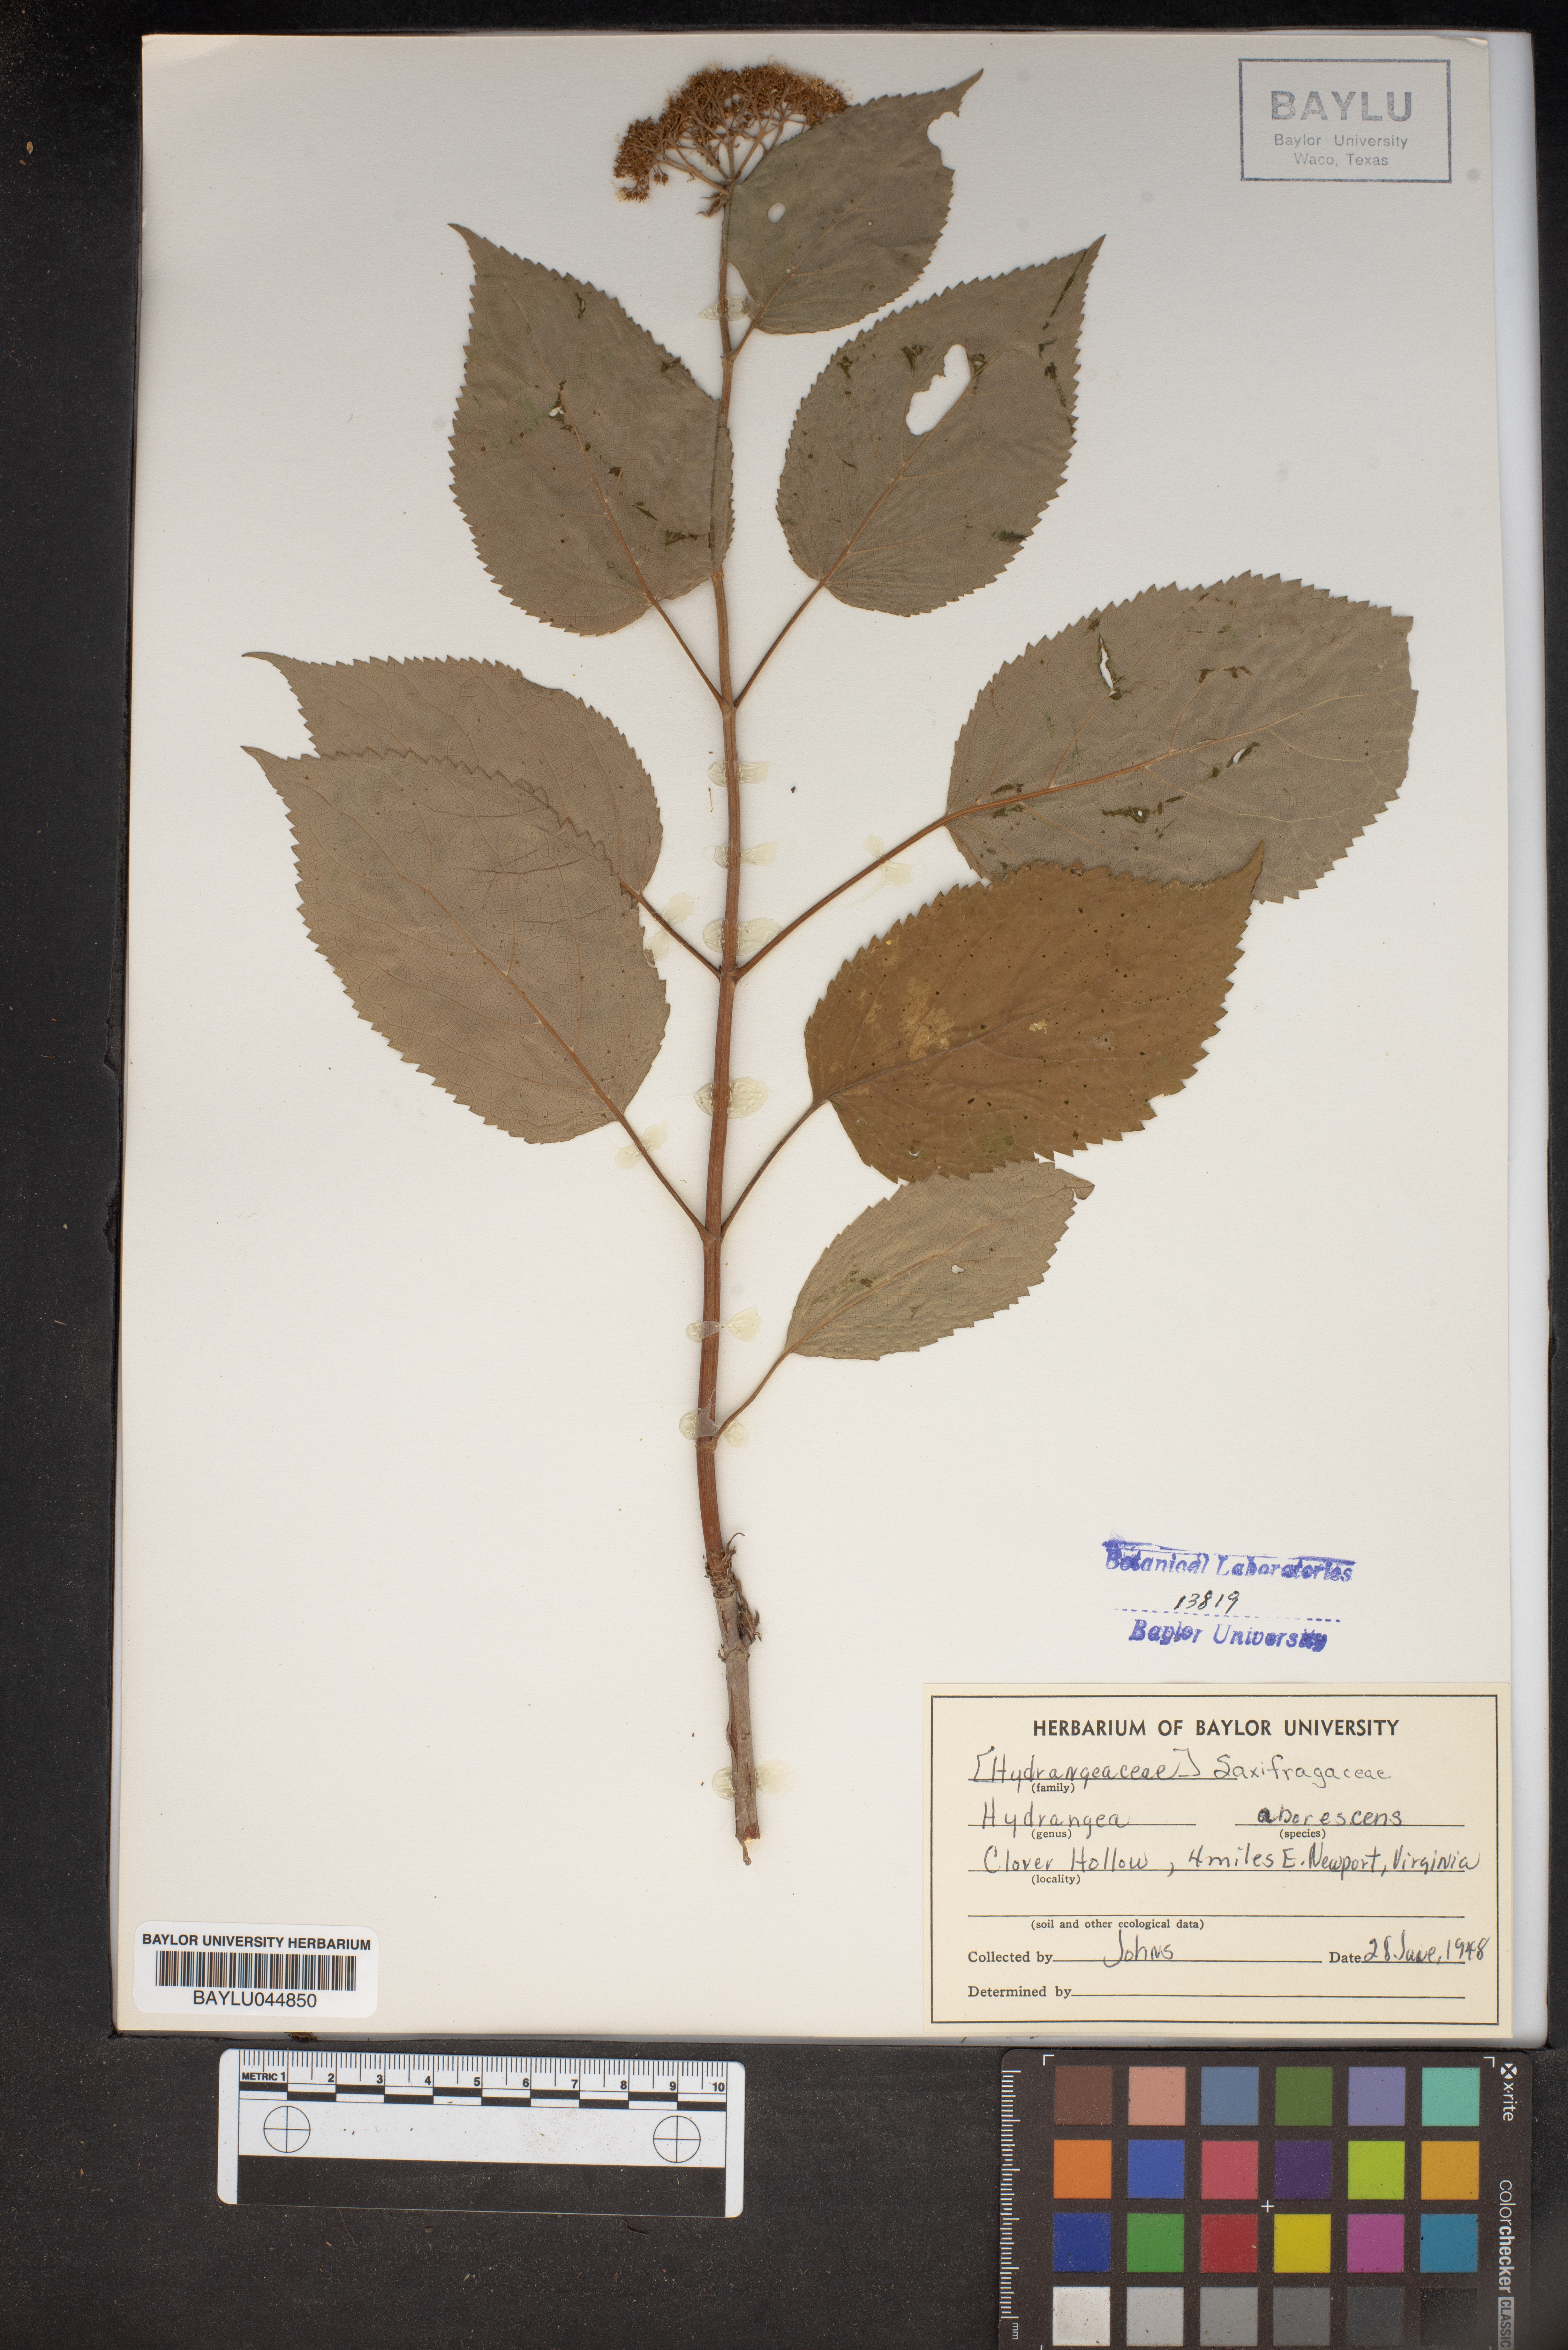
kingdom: Plantae
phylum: Tracheophyta
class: Magnoliopsida
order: Cornales
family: Hydrangeaceae
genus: Hydrangea
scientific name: Hydrangea arborescens
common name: Sevenbark
